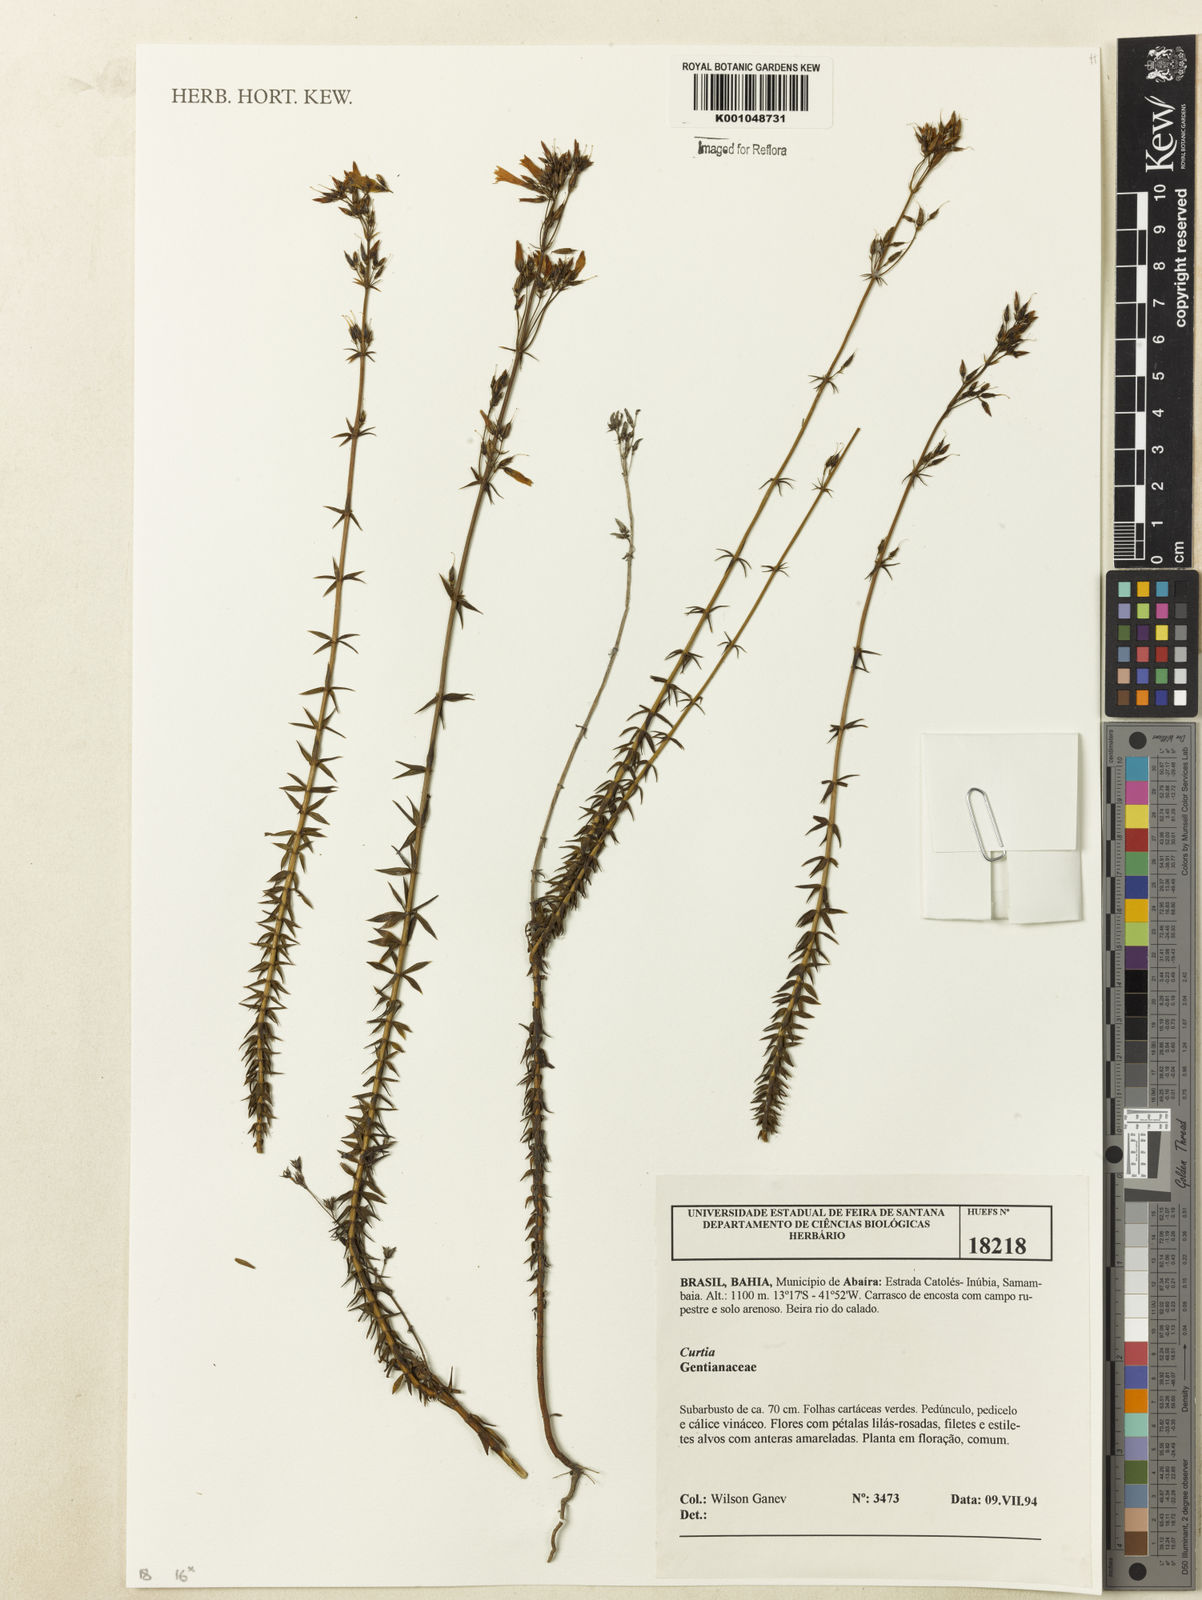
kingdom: Plantae
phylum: Tracheophyta
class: Magnoliopsida
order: Gentianales
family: Gentianaceae
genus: Curtia
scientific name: Curtia
